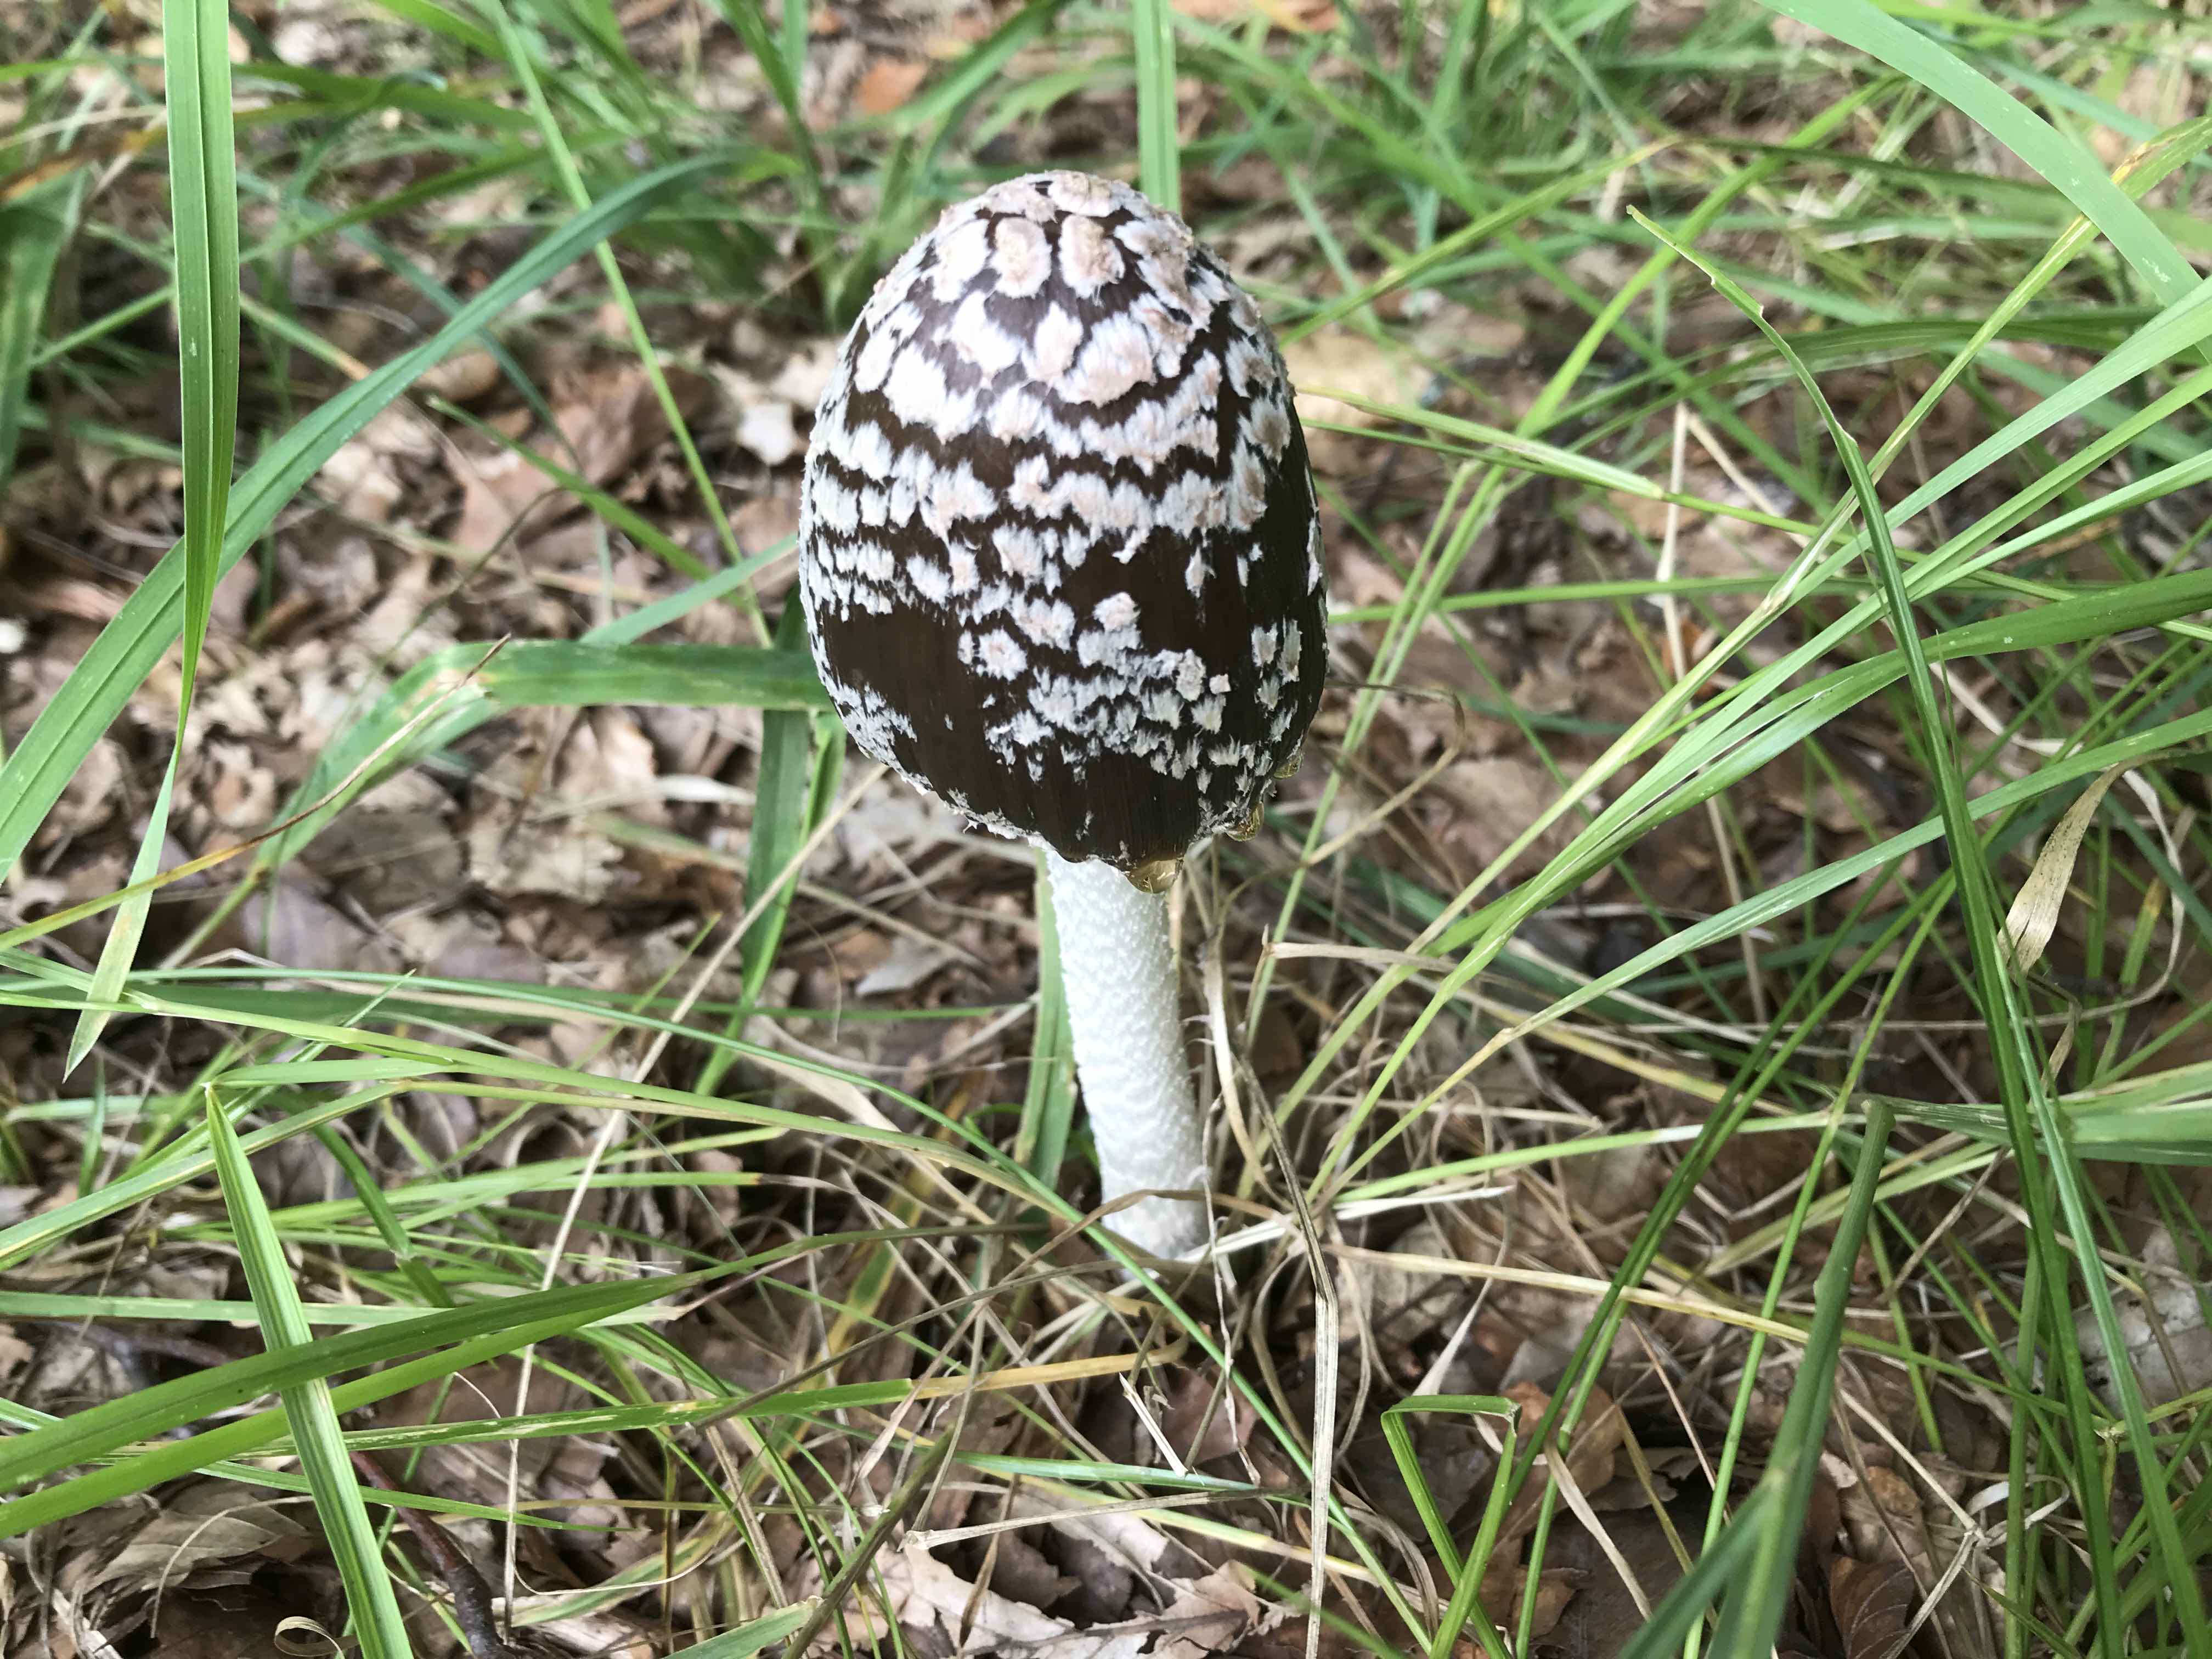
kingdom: Fungi
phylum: Basidiomycota
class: Agaricomycetes
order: Agaricales
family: Psathyrellaceae
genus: Coprinopsis
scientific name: Coprinopsis picacea
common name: skade-blækhat
